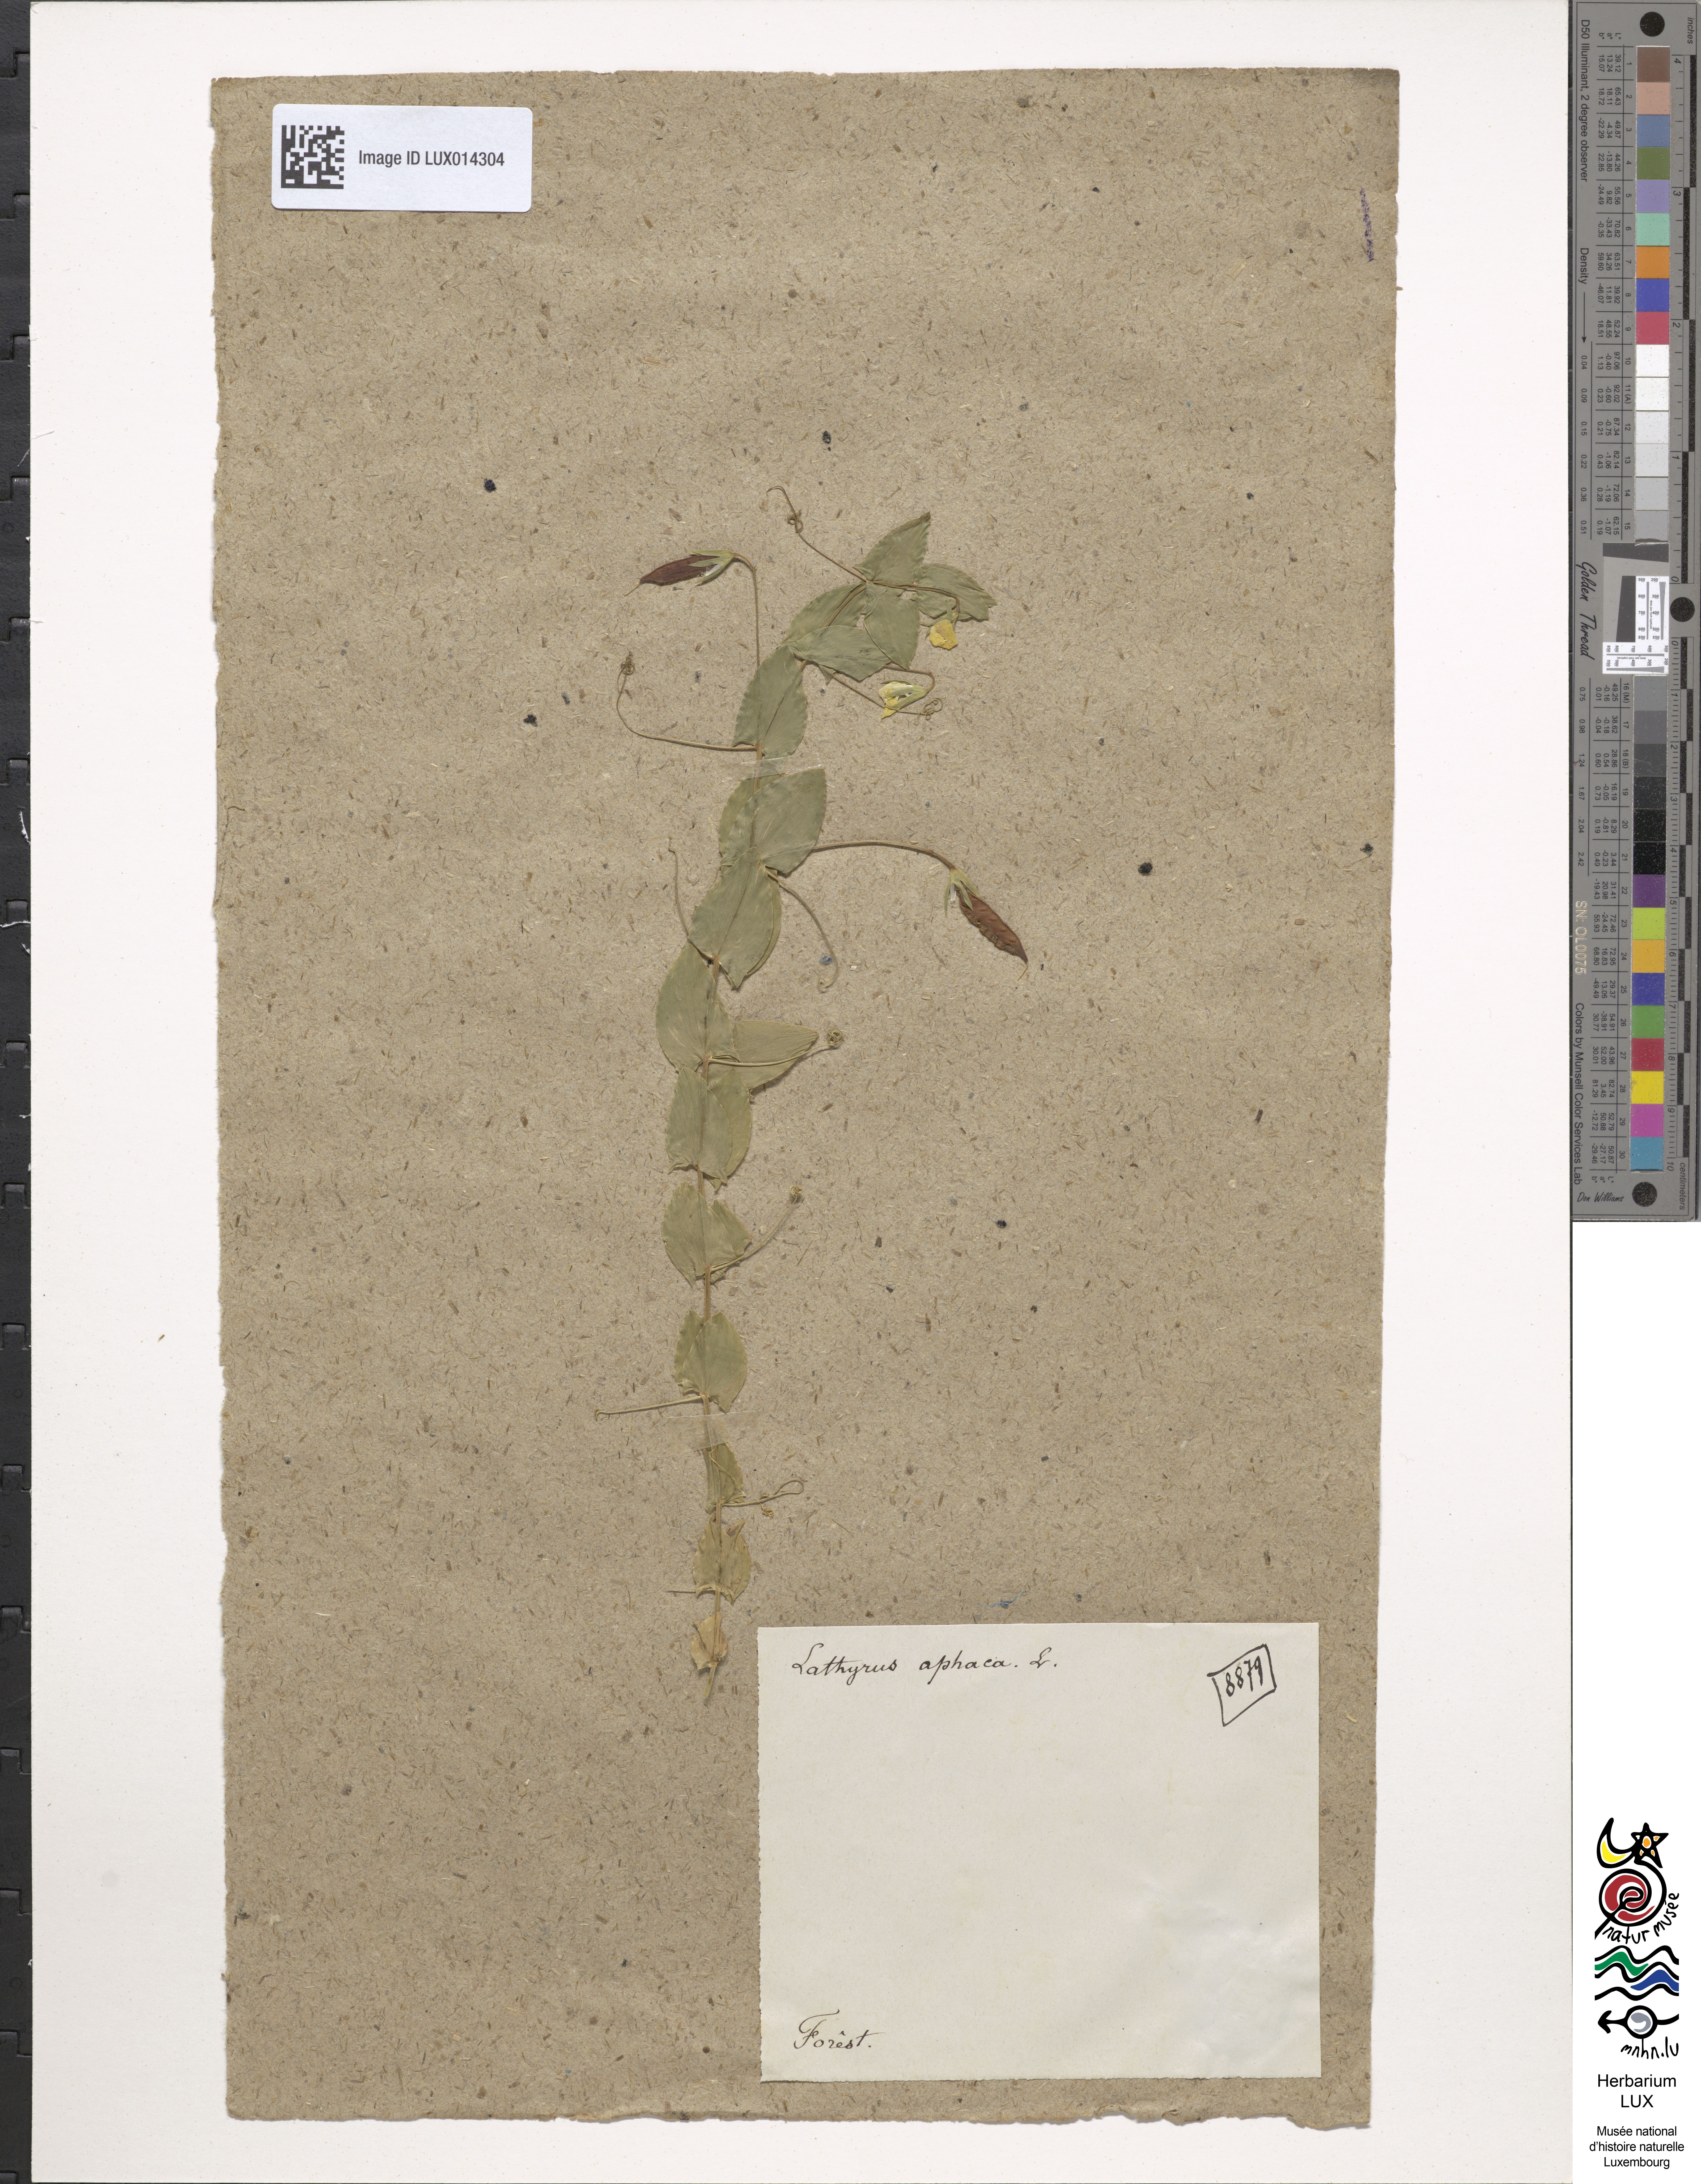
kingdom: Plantae
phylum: Tracheophyta
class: Magnoliopsida
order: Fabales
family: Fabaceae
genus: Lathyrus
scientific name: Lathyrus aphaca
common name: Yellow vetchling
